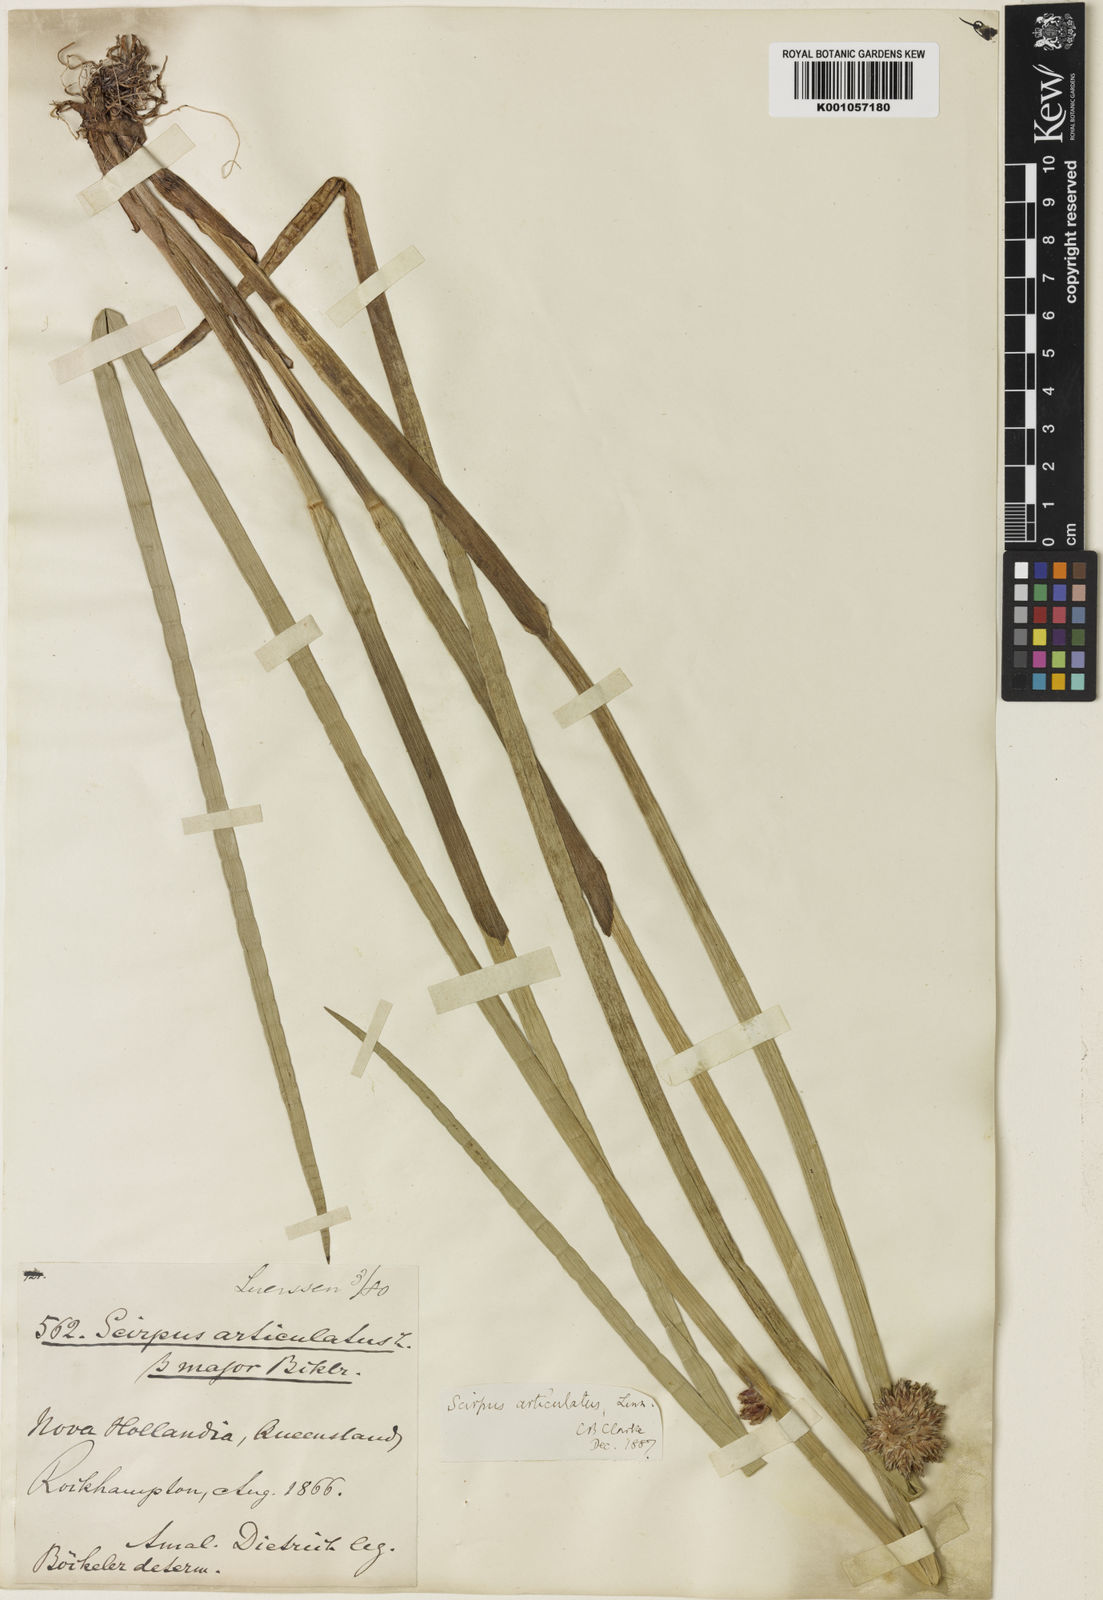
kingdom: Plantae
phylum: Tracheophyta
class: Liliopsida
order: Poales
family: Cyperaceae
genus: Schoenoplectiella
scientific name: Schoenoplectiella articulata
